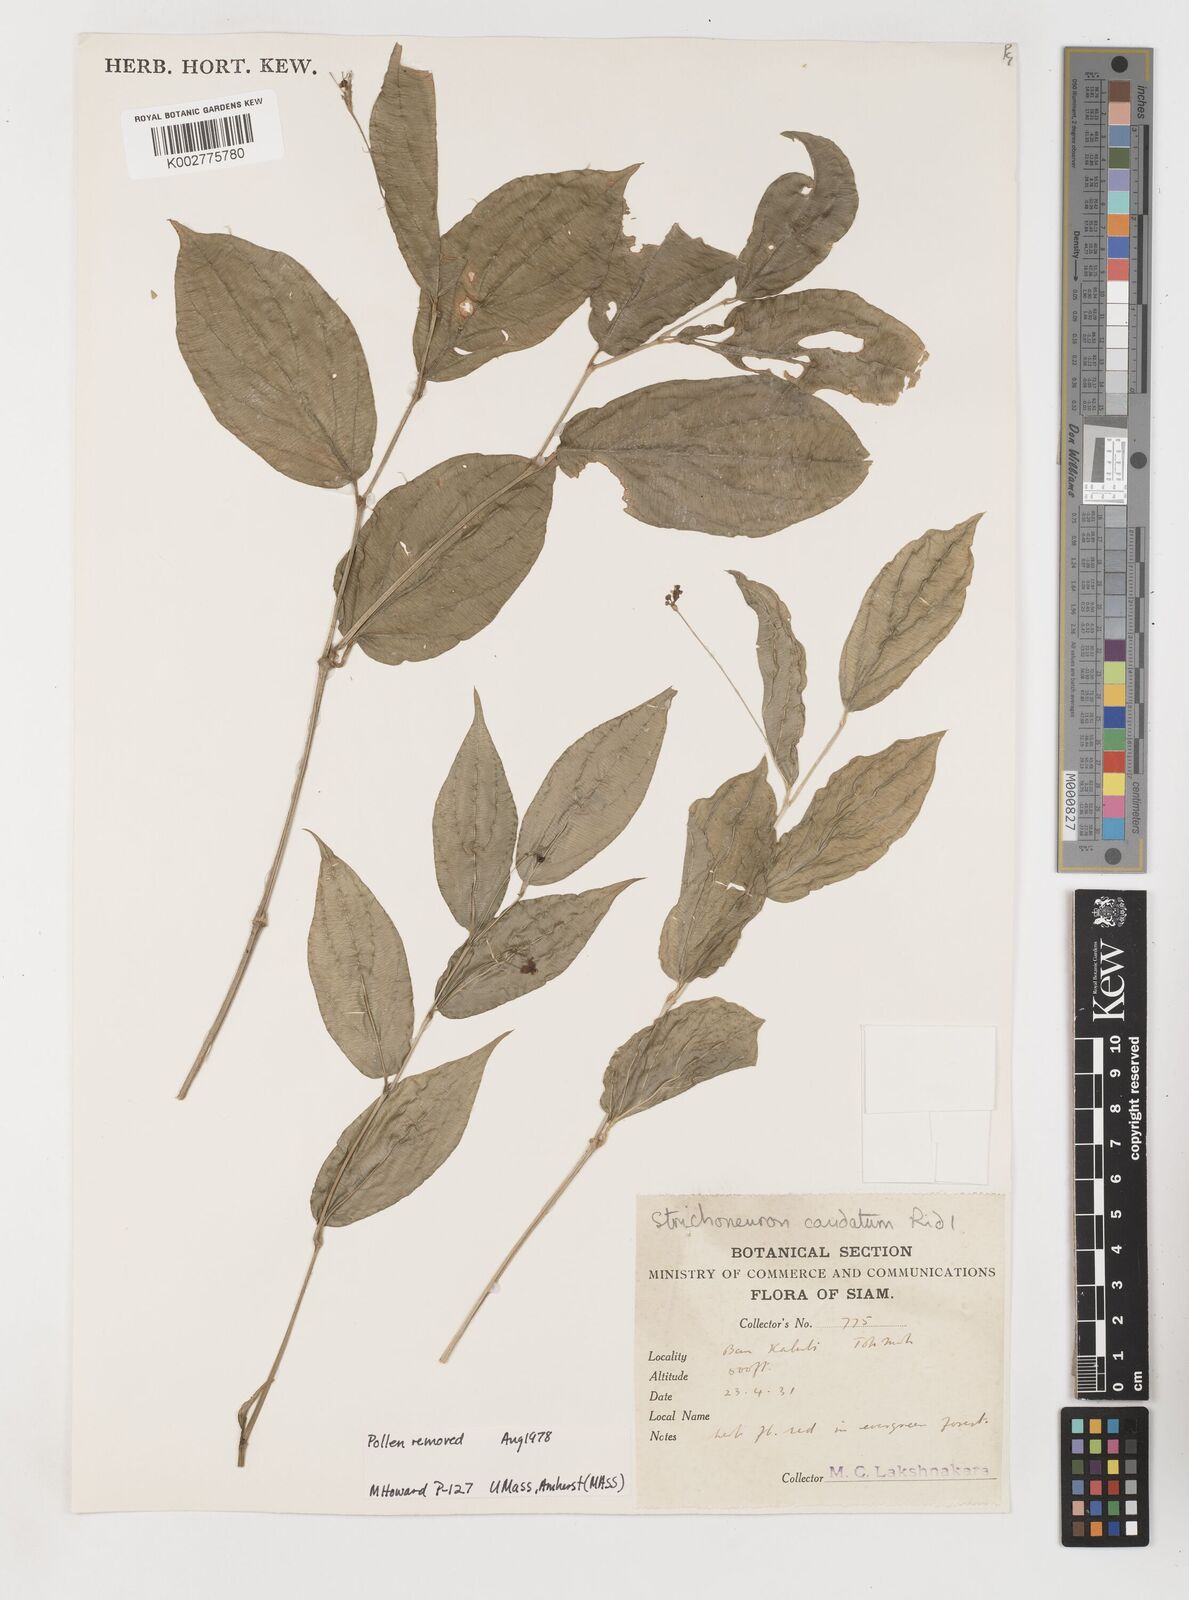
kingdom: Plantae
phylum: Tracheophyta
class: Liliopsida
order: Pandanales
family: Stemonaceae
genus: Stichoneuron
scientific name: Stichoneuron caudatum
